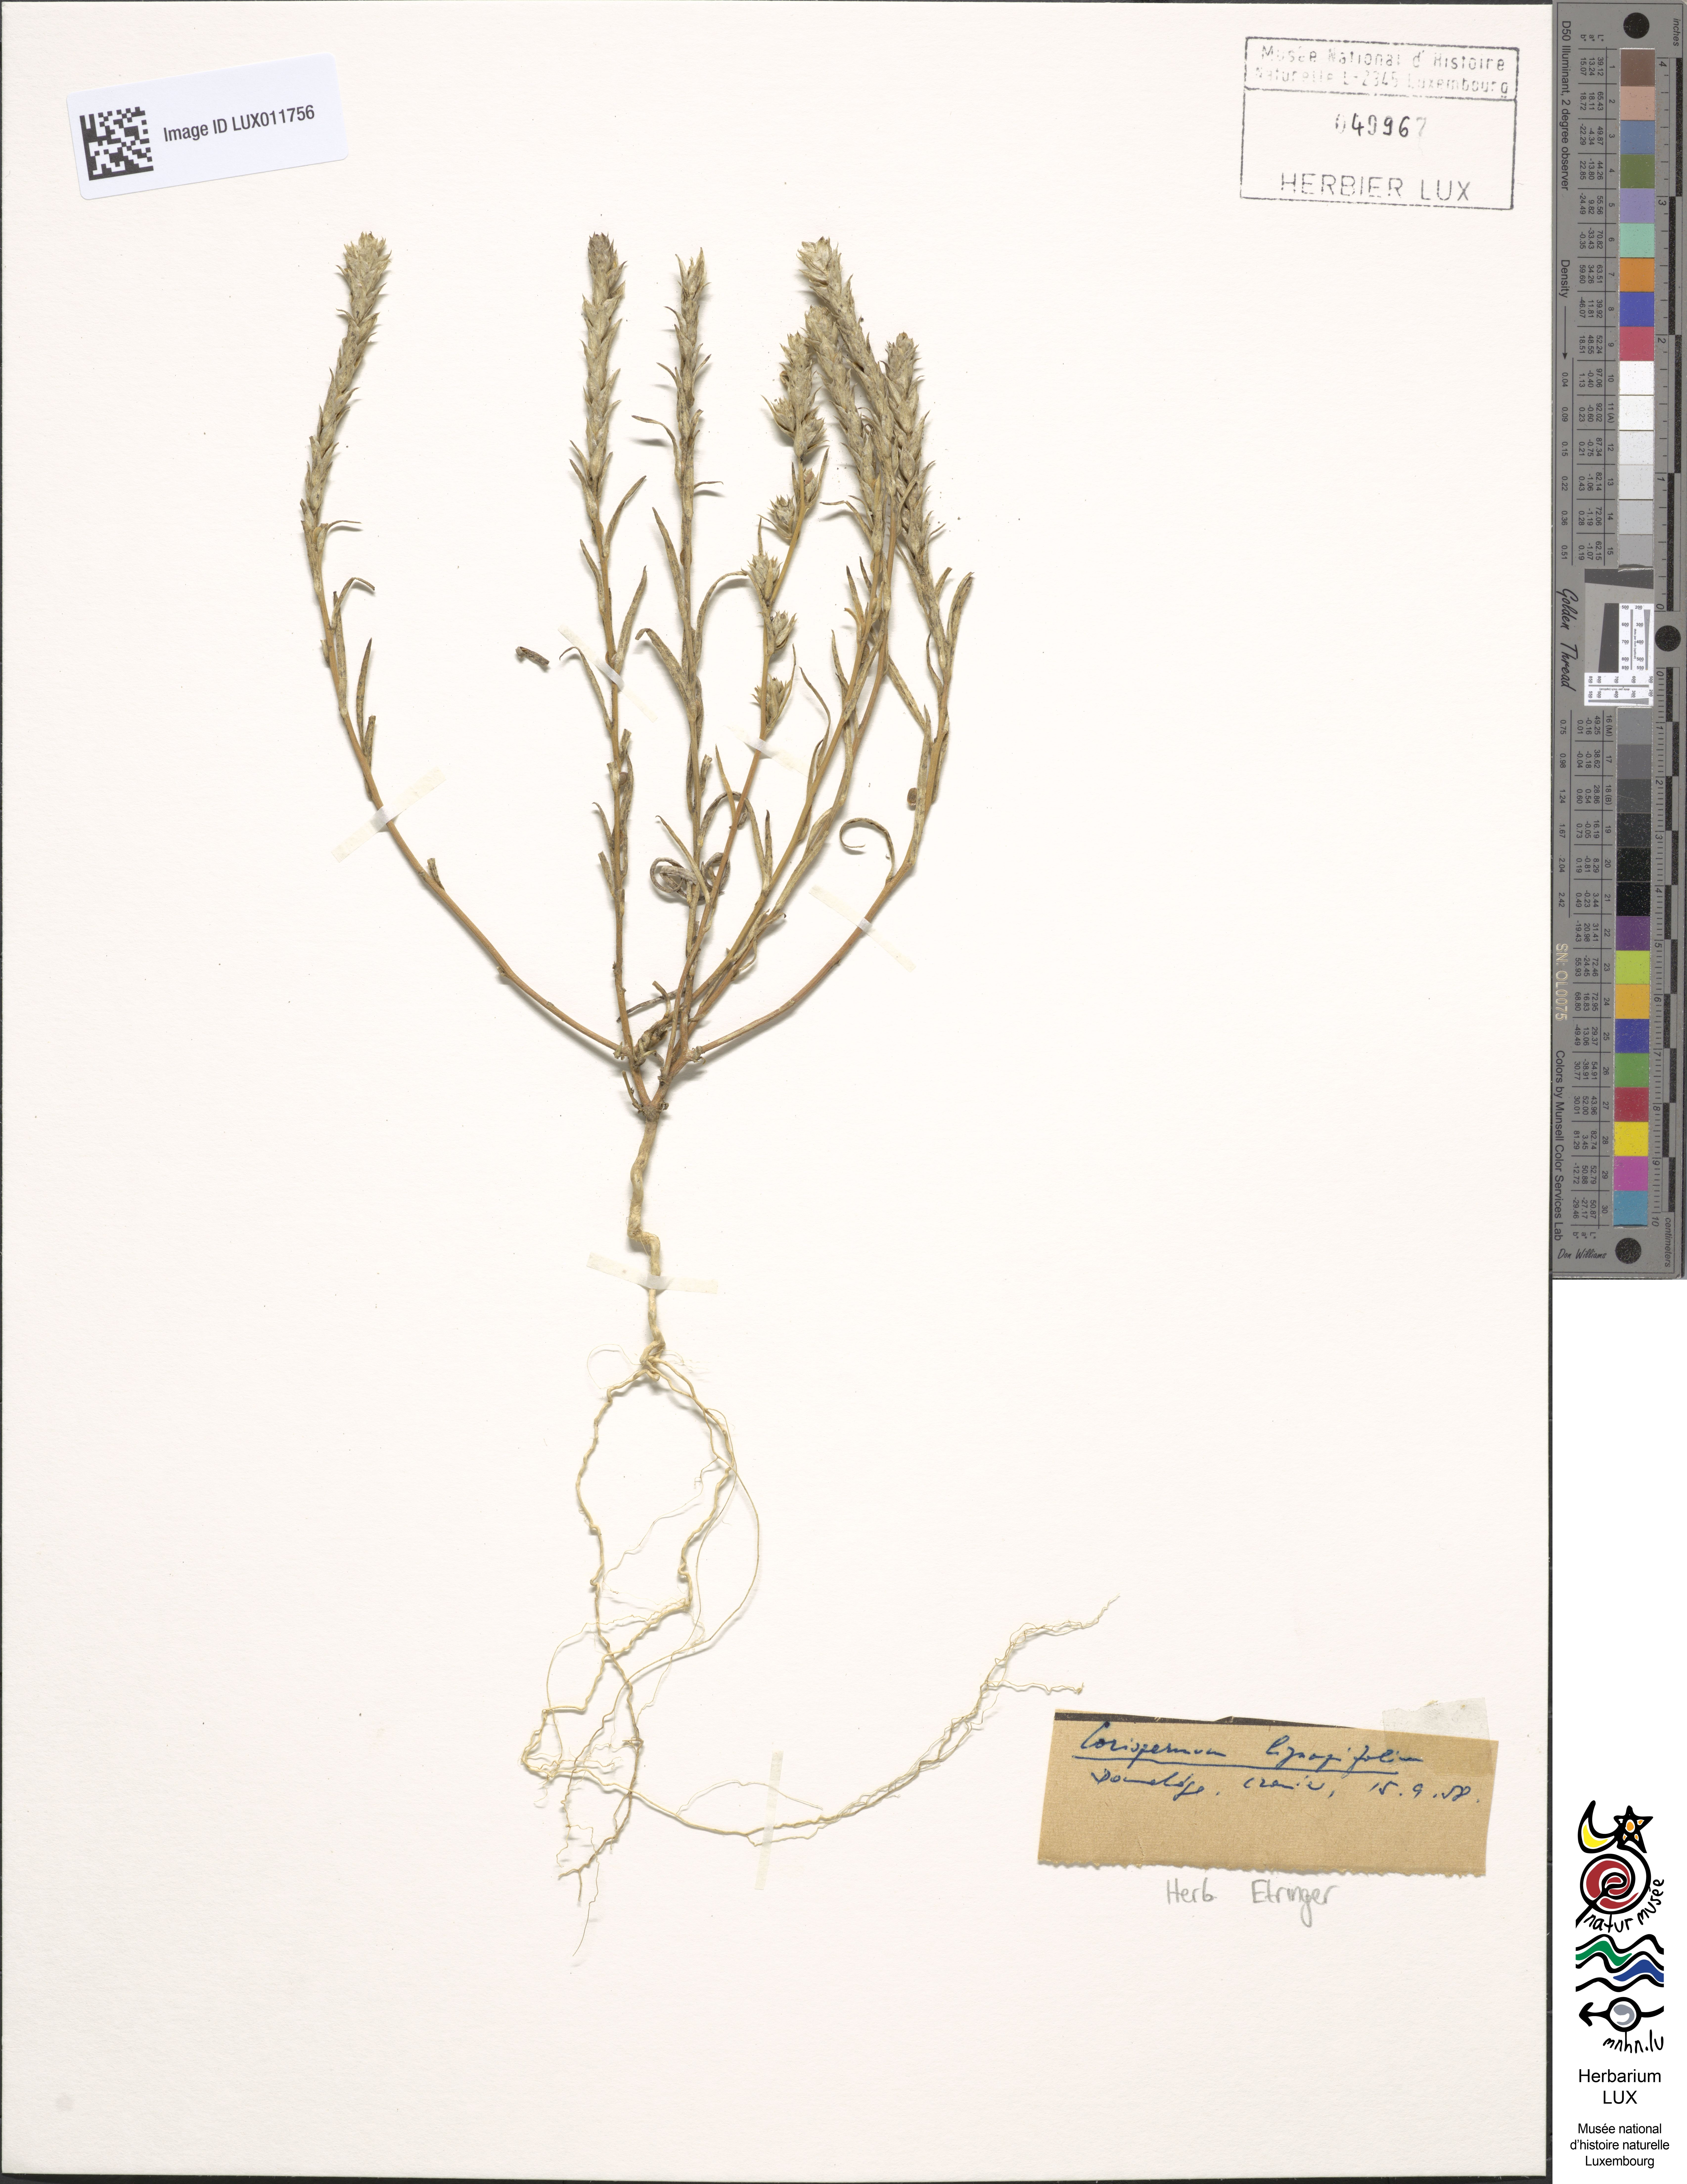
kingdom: Plantae
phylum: Tracheophyta
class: Magnoliopsida
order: Caryophyllales
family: Amaranthaceae
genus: Corispermum
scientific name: Corispermum hyssopifolium
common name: Bugseed
